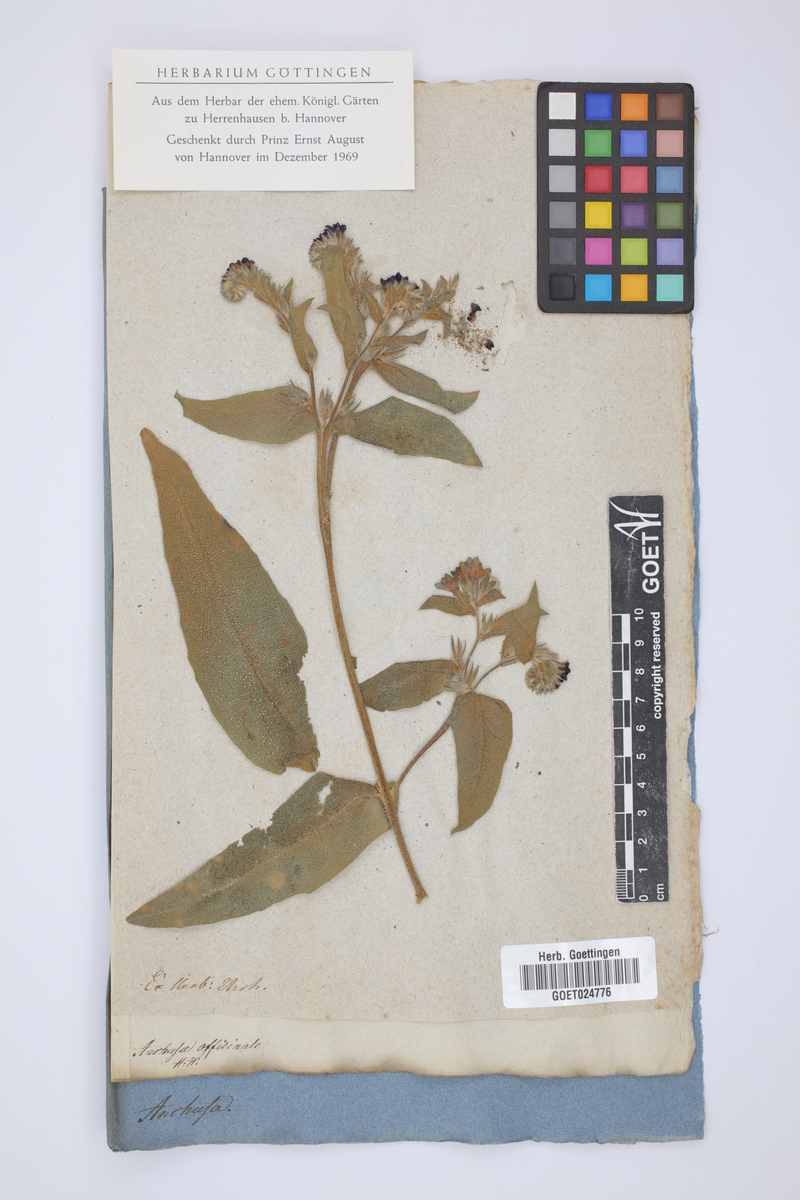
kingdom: Plantae
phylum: Tracheophyta
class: Magnoliopsida
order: Boraginales
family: Boraginaceae
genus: Anchusa
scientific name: Anchusa officinalis
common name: Alkanet
